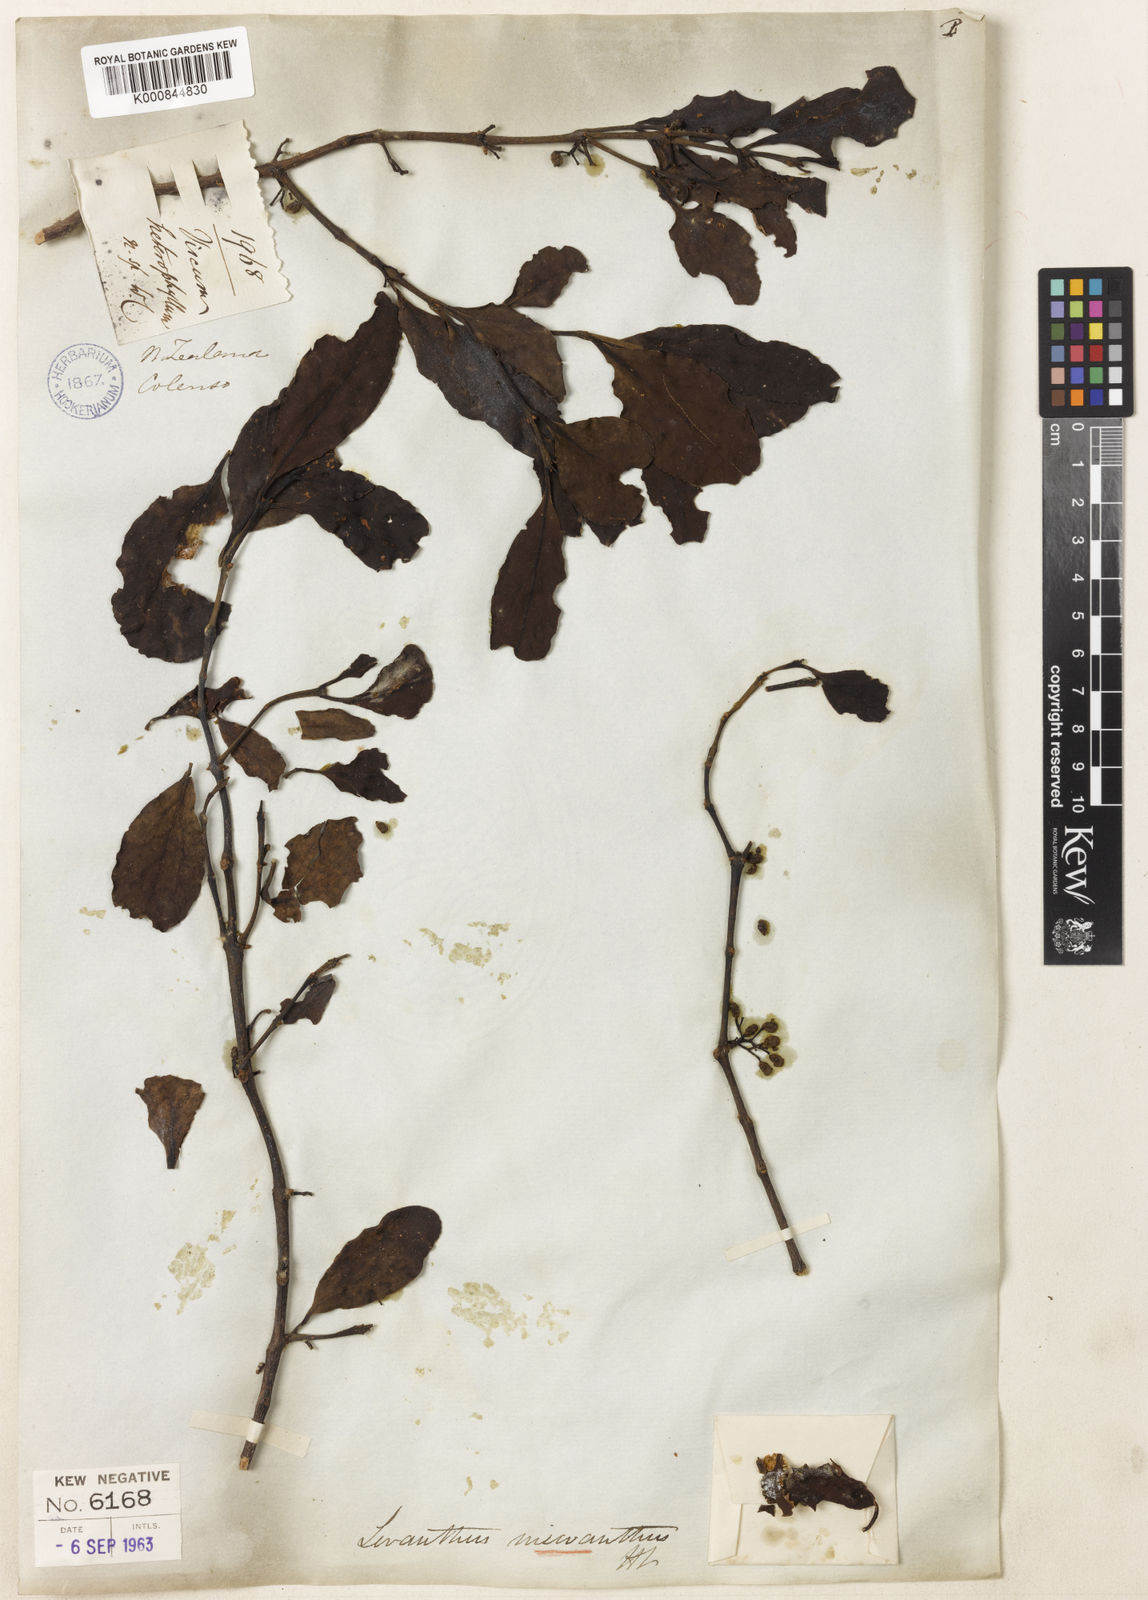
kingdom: Plantae
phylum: Tracheophyta
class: Magnoliopsida
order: Santalales
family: Loranthaceae
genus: Ileostylus
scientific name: Ileostylus micranthus
